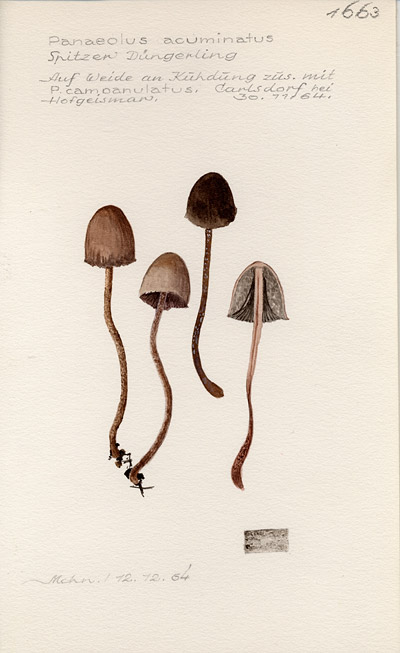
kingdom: Fungi
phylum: Basidiomycota
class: Agaricomycetes
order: Agaricales
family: Bolbitiaceae
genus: Panaeolus
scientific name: Panaeolus acuminatus
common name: Dewdrop mottlegill
